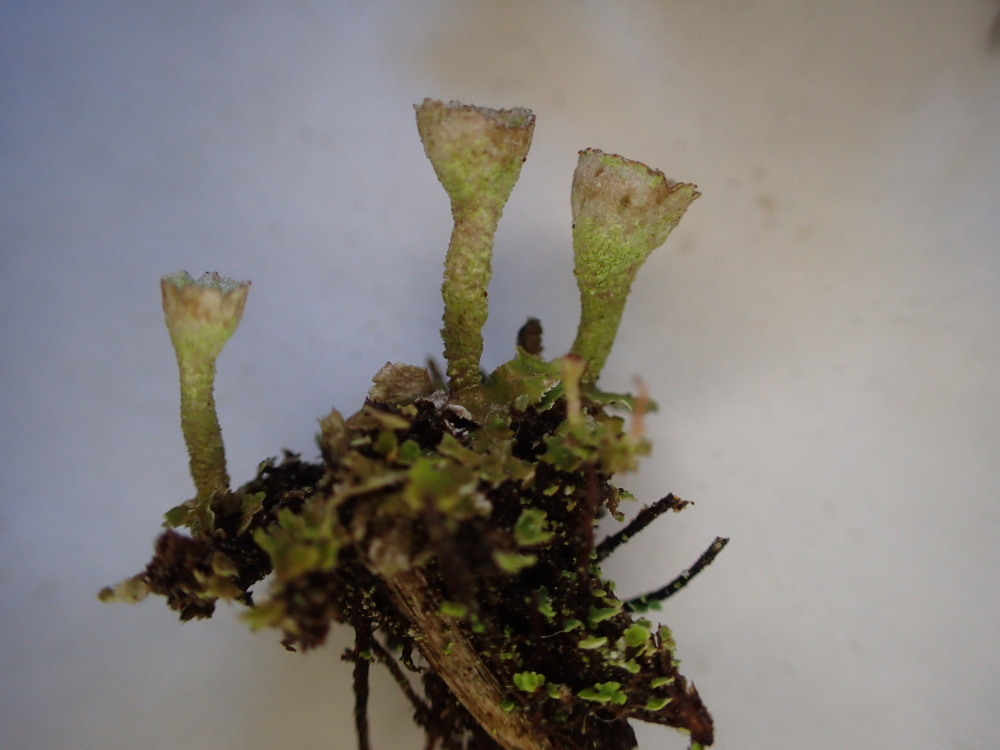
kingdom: Fungi
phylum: Ascomycota
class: Lecanoromycetes
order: Lecanorales
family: Cladoniaceae
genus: Cladonia
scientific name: Cladonia merochlorophaea
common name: mørk bægerlav
